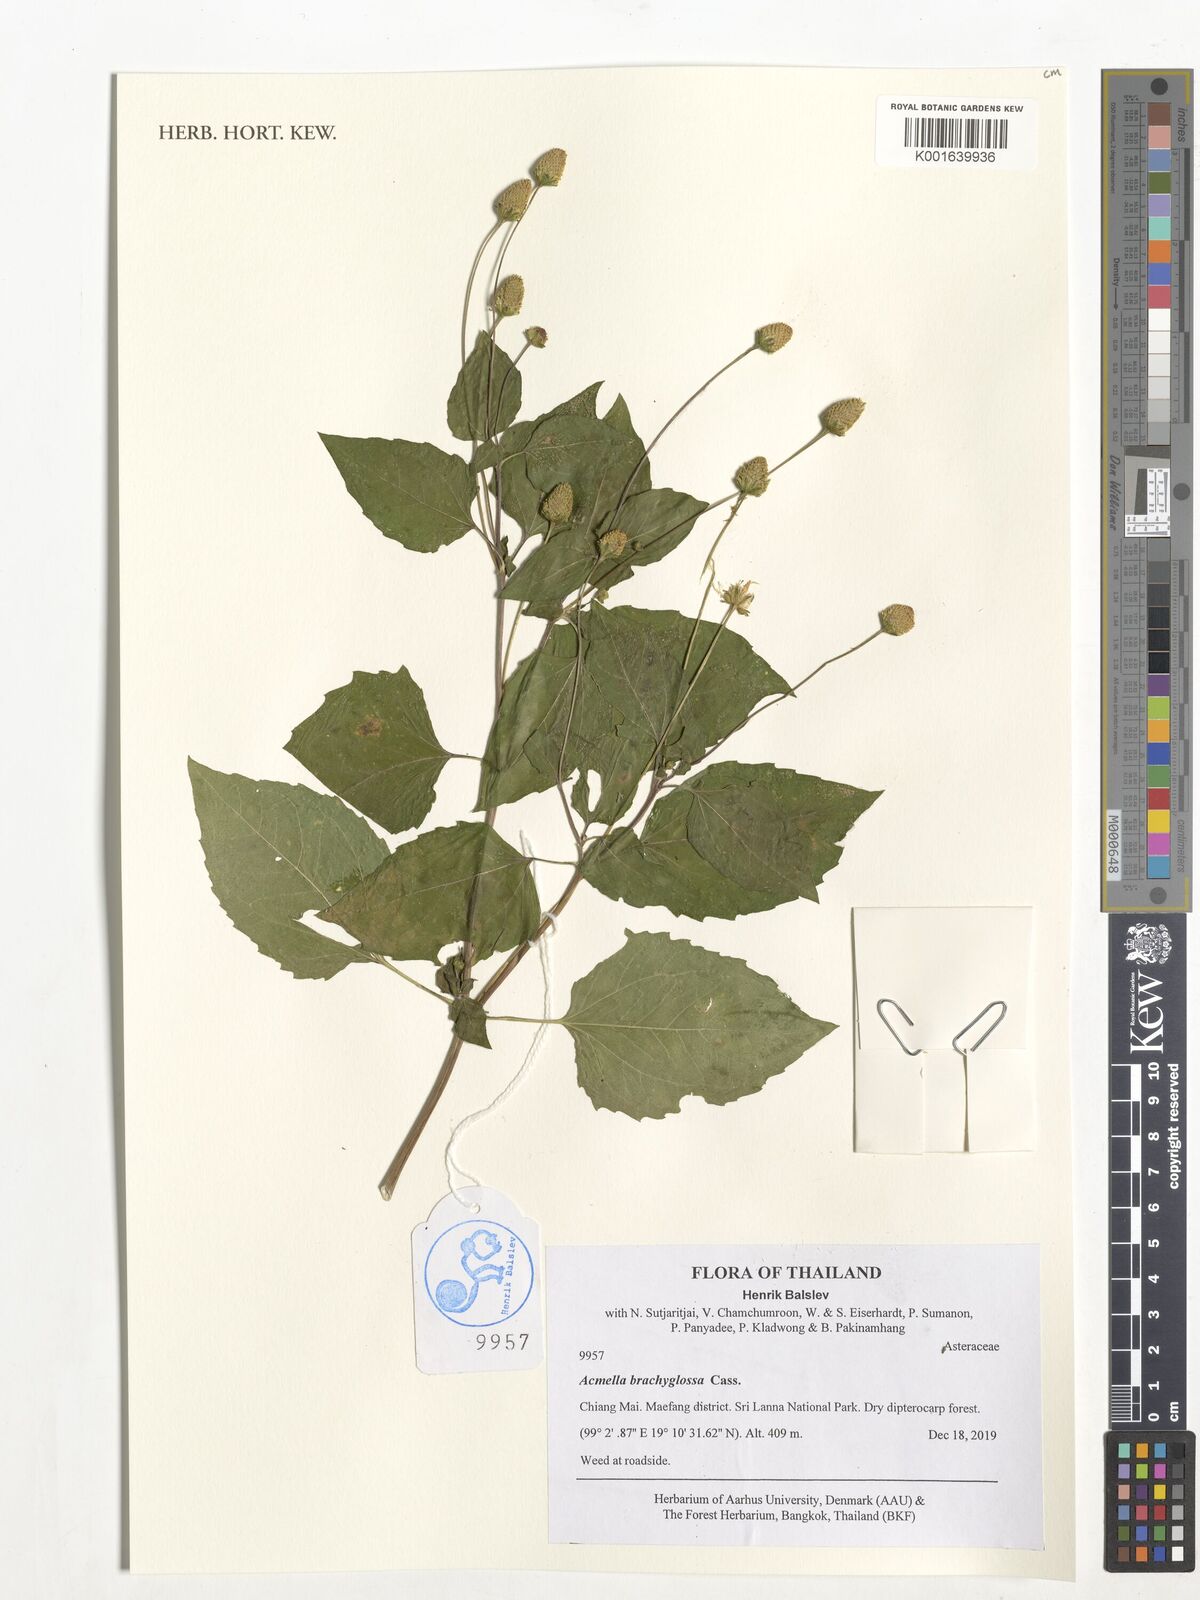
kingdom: Plantae
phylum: Tracheophyta
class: Magnoliopsida
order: Asterales
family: Asteraceae
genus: Acmella
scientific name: Acmella brachyglossa
